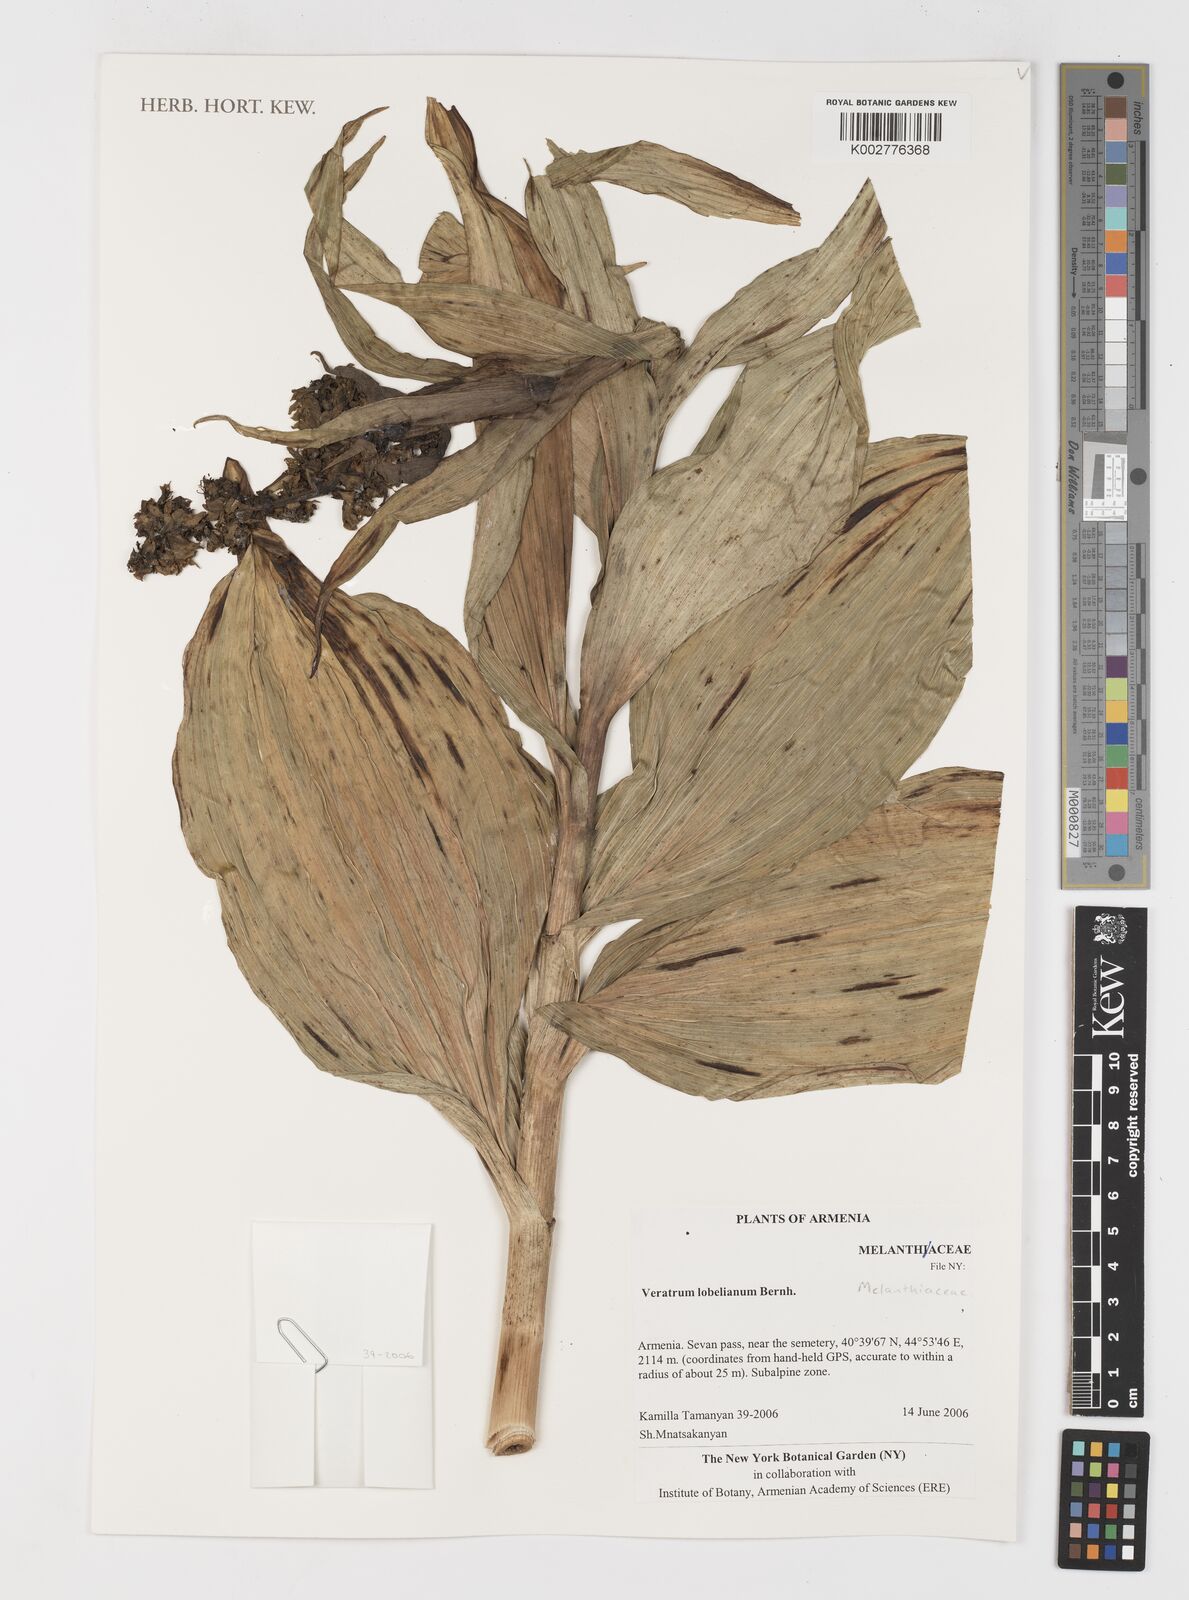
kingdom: Plantae
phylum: Tracheophyta
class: Liliopsida
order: Liliales
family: Melanthiaceae
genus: Veratrum
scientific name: Veratrum lobelianum
